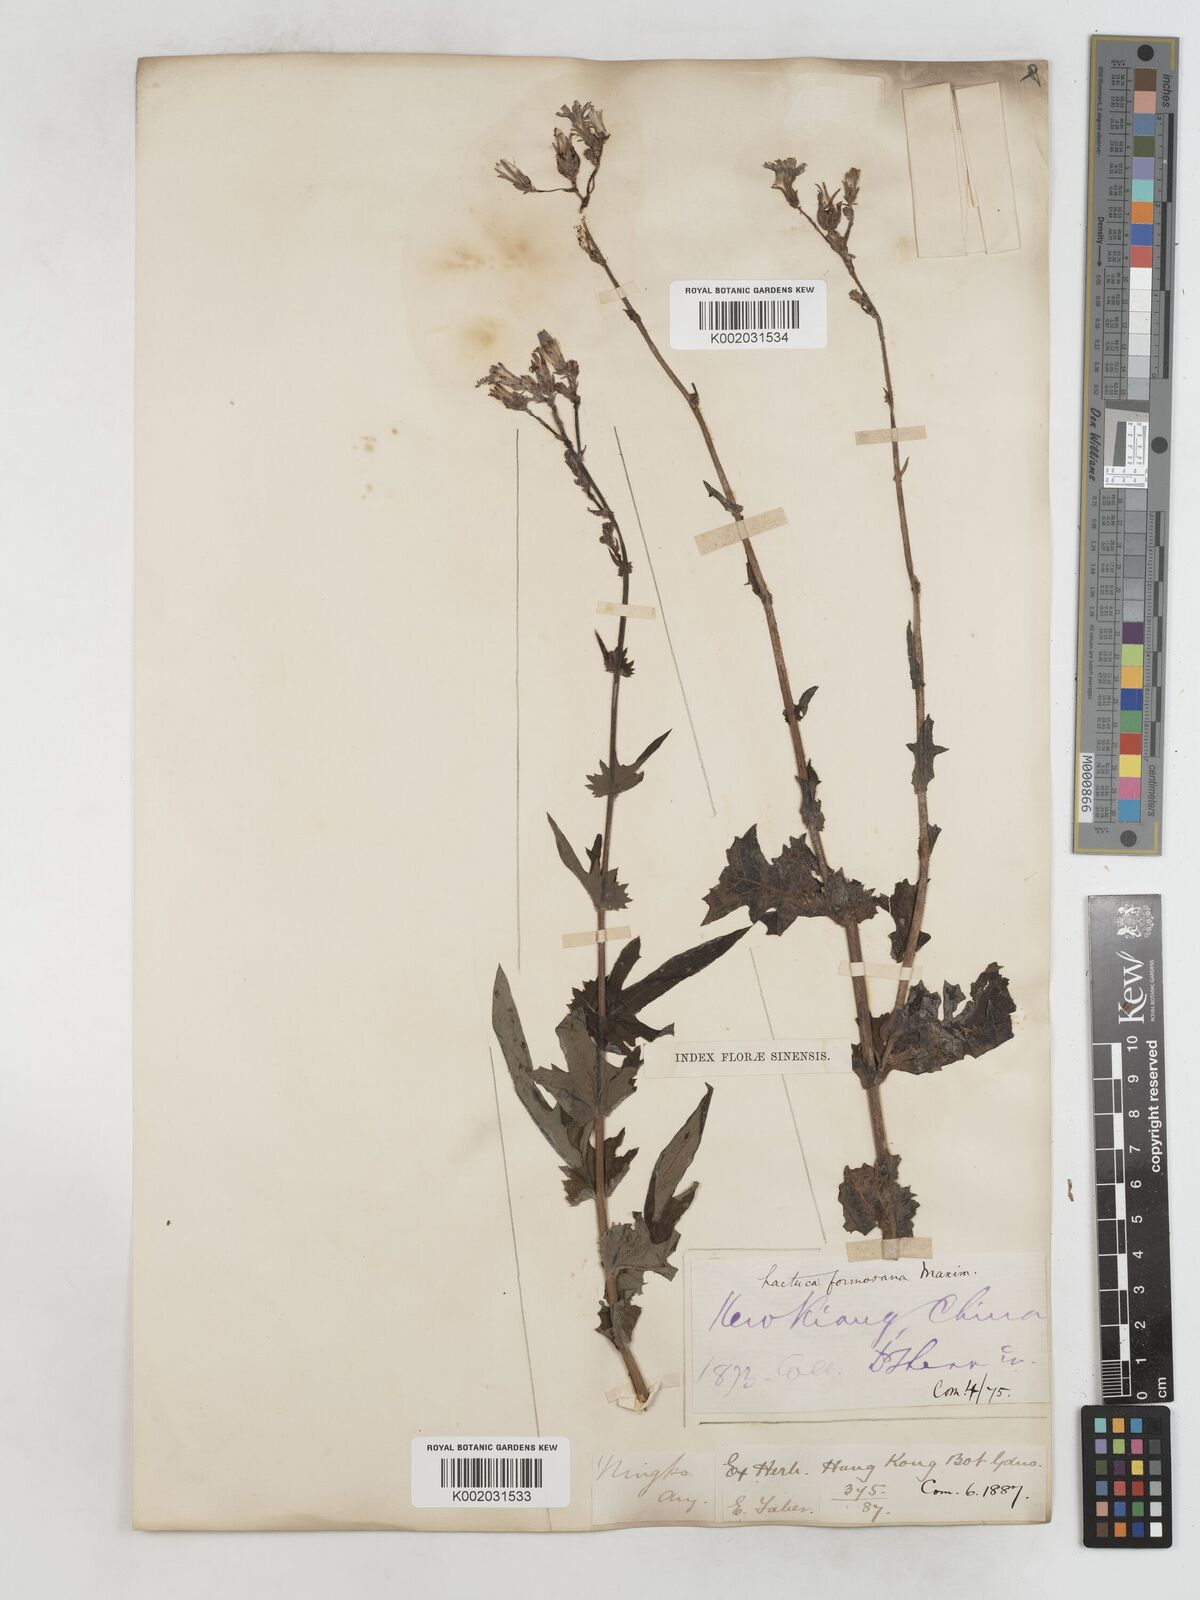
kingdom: Plantae
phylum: Tracheophyta
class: Magnoliopsida
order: Asterales
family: Asteraceae
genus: Lactuca
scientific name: Lactuca formosana
